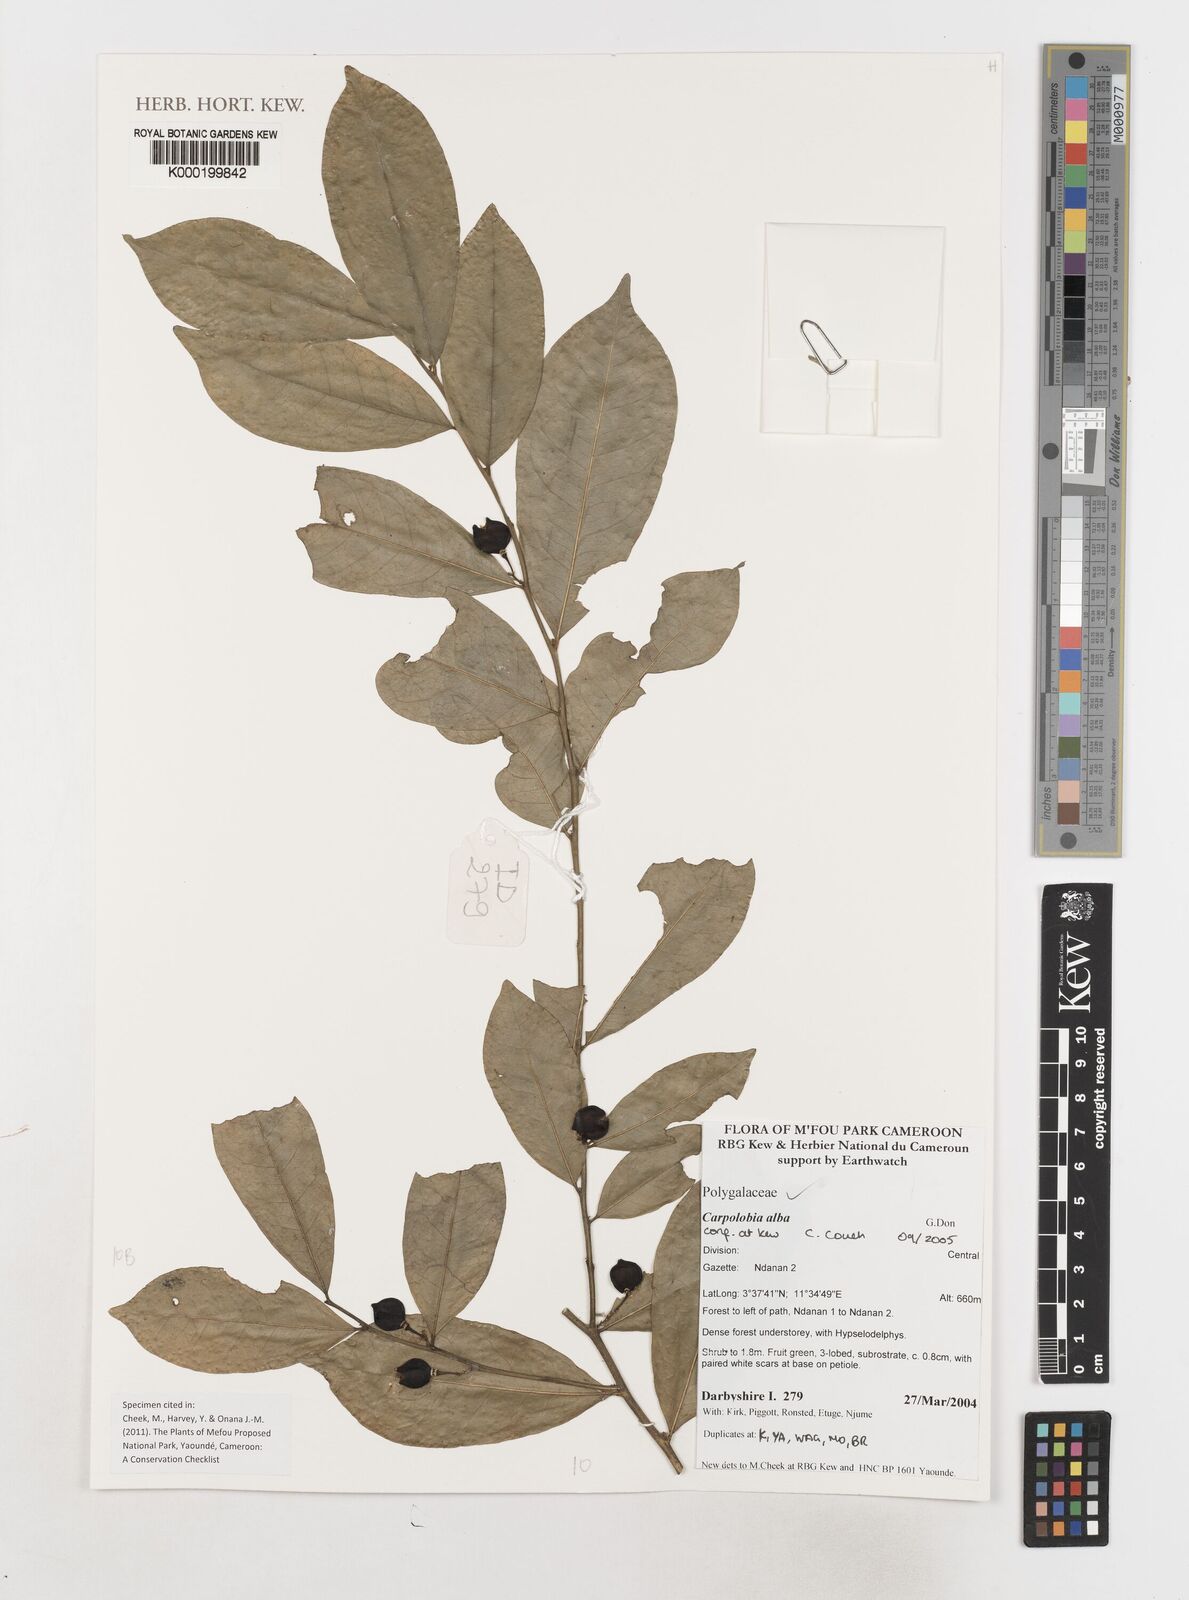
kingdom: Plantae
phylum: Tracheophyta
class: Magnoliopsida
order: Fabales
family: Polygalaceae
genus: Carpolobia
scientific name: Carpolobia alba
